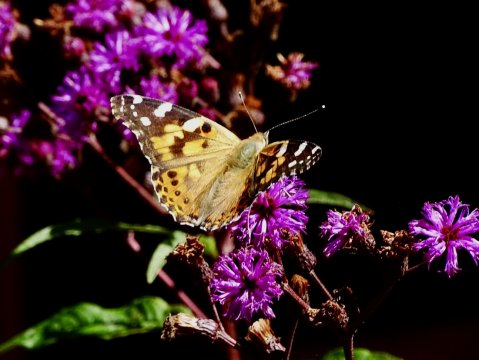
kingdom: Animalia
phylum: Arthropoda
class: Insecta
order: Lepidoptera
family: Nymphalidae
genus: Vanessa
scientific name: Vanessa cardui
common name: Painted Lady
